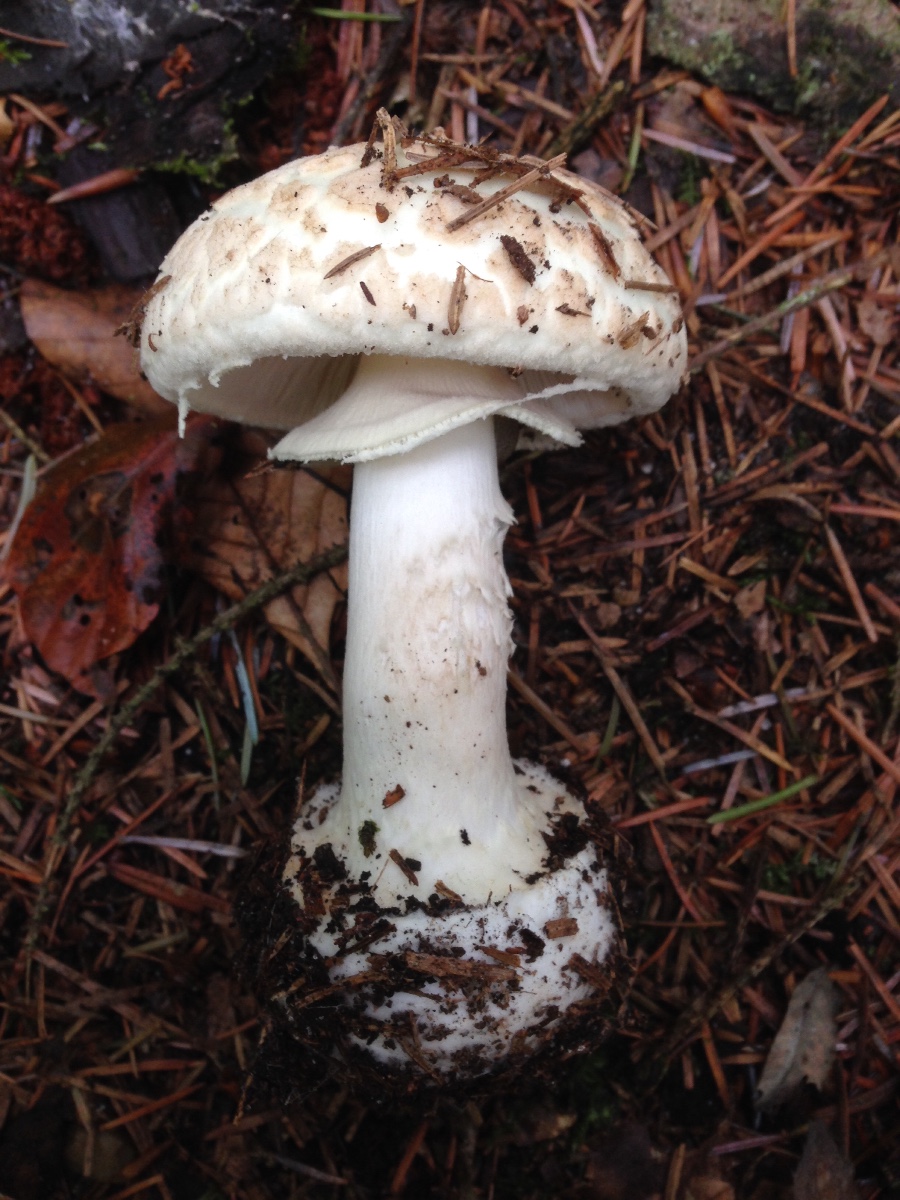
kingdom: Fungi
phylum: Basidiomycota
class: Agaricomycetes
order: Agaricales
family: Amanitaceae
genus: Amanita
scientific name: Amanita citrina
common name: kugleknoldet fluesvamp
